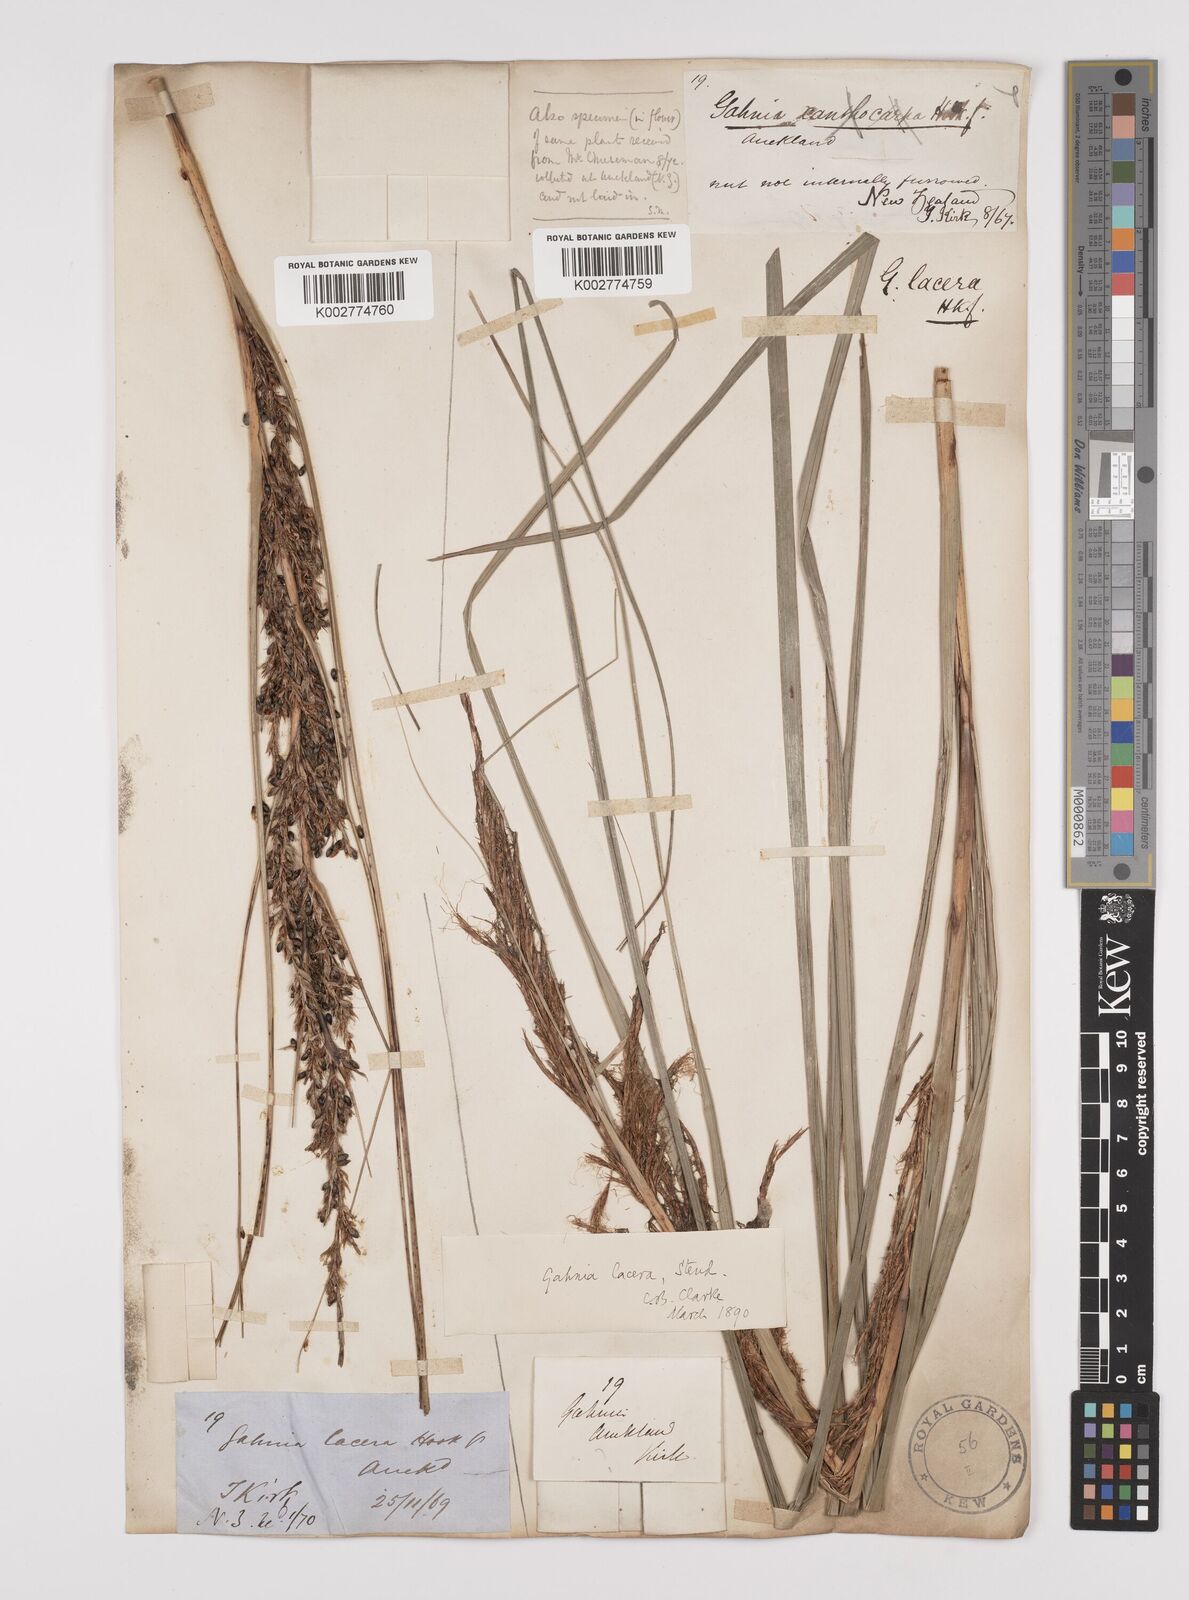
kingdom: Plantae
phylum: Tracheophyta
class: Liliopsida
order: Poales
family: Cyperaceae
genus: Gahnia
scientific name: Gahnia lacera
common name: Sawsedge
